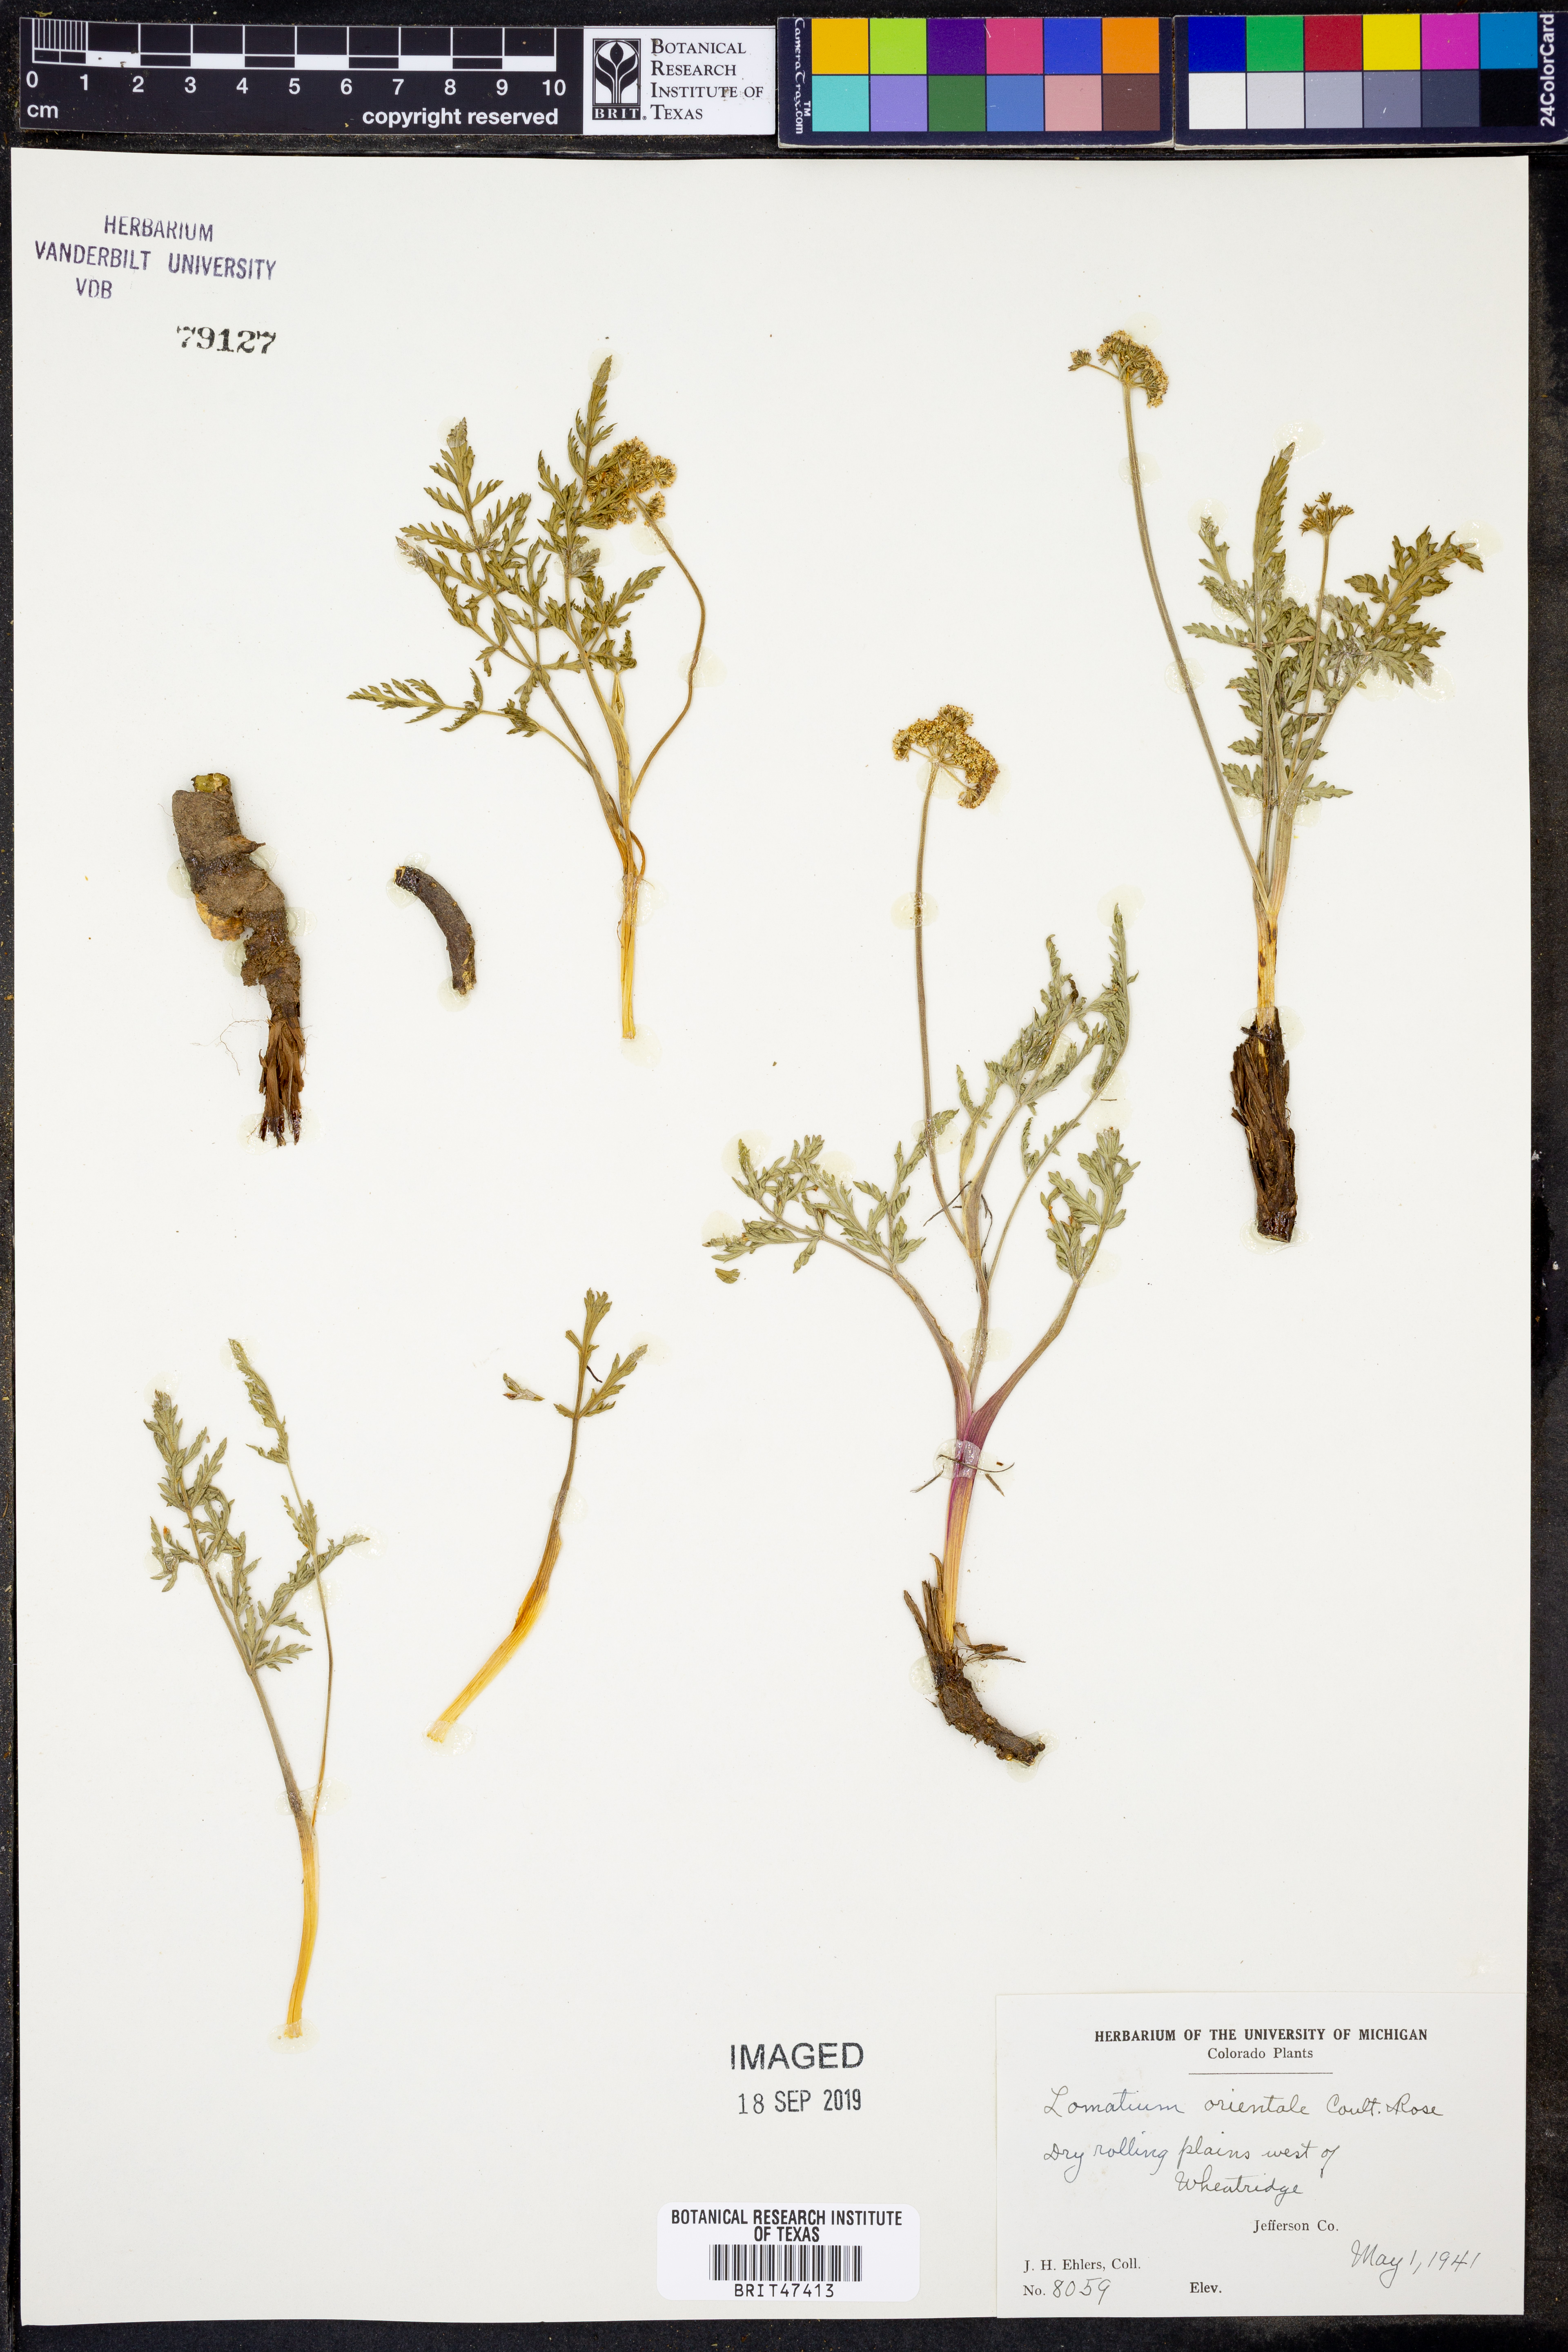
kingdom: Plantae
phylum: Tracheophyta
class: Magnoliopsida
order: Apiales
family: Apiaceae
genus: Lomatium
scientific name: Lomatium orientale
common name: Eastern cous
